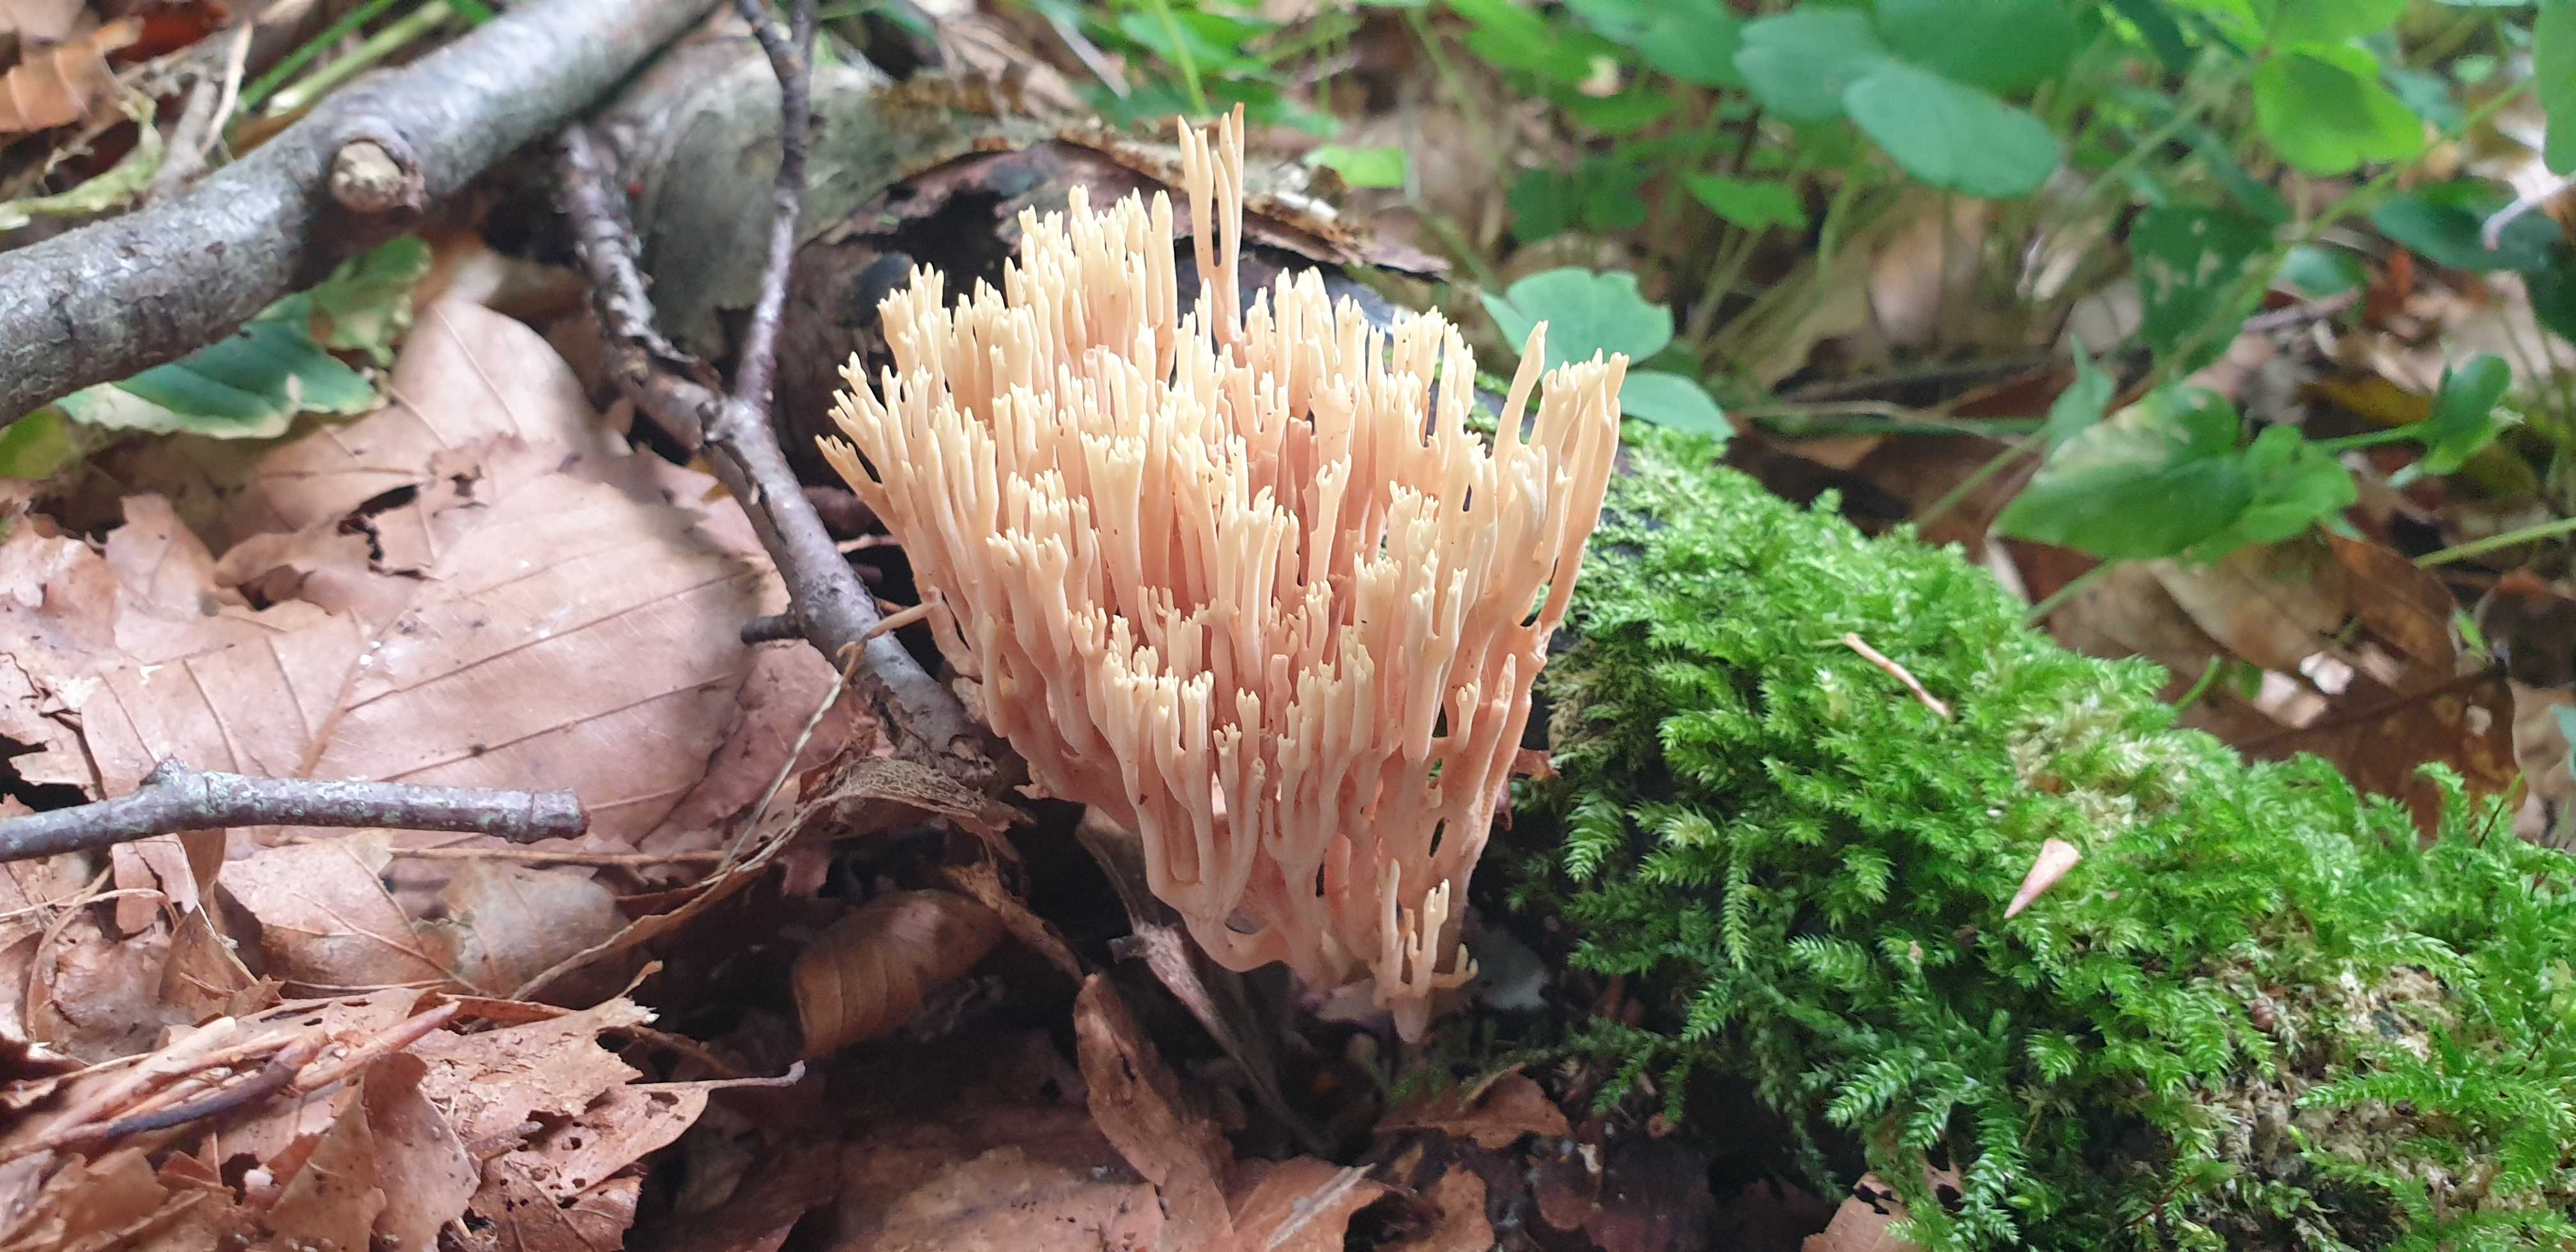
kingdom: Fungi
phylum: Basidiomycota
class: Agaricomycetes
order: Gomphales
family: Gomphaceae
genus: Ramaria
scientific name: Ramaria stricta
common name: rank koralsvamp
